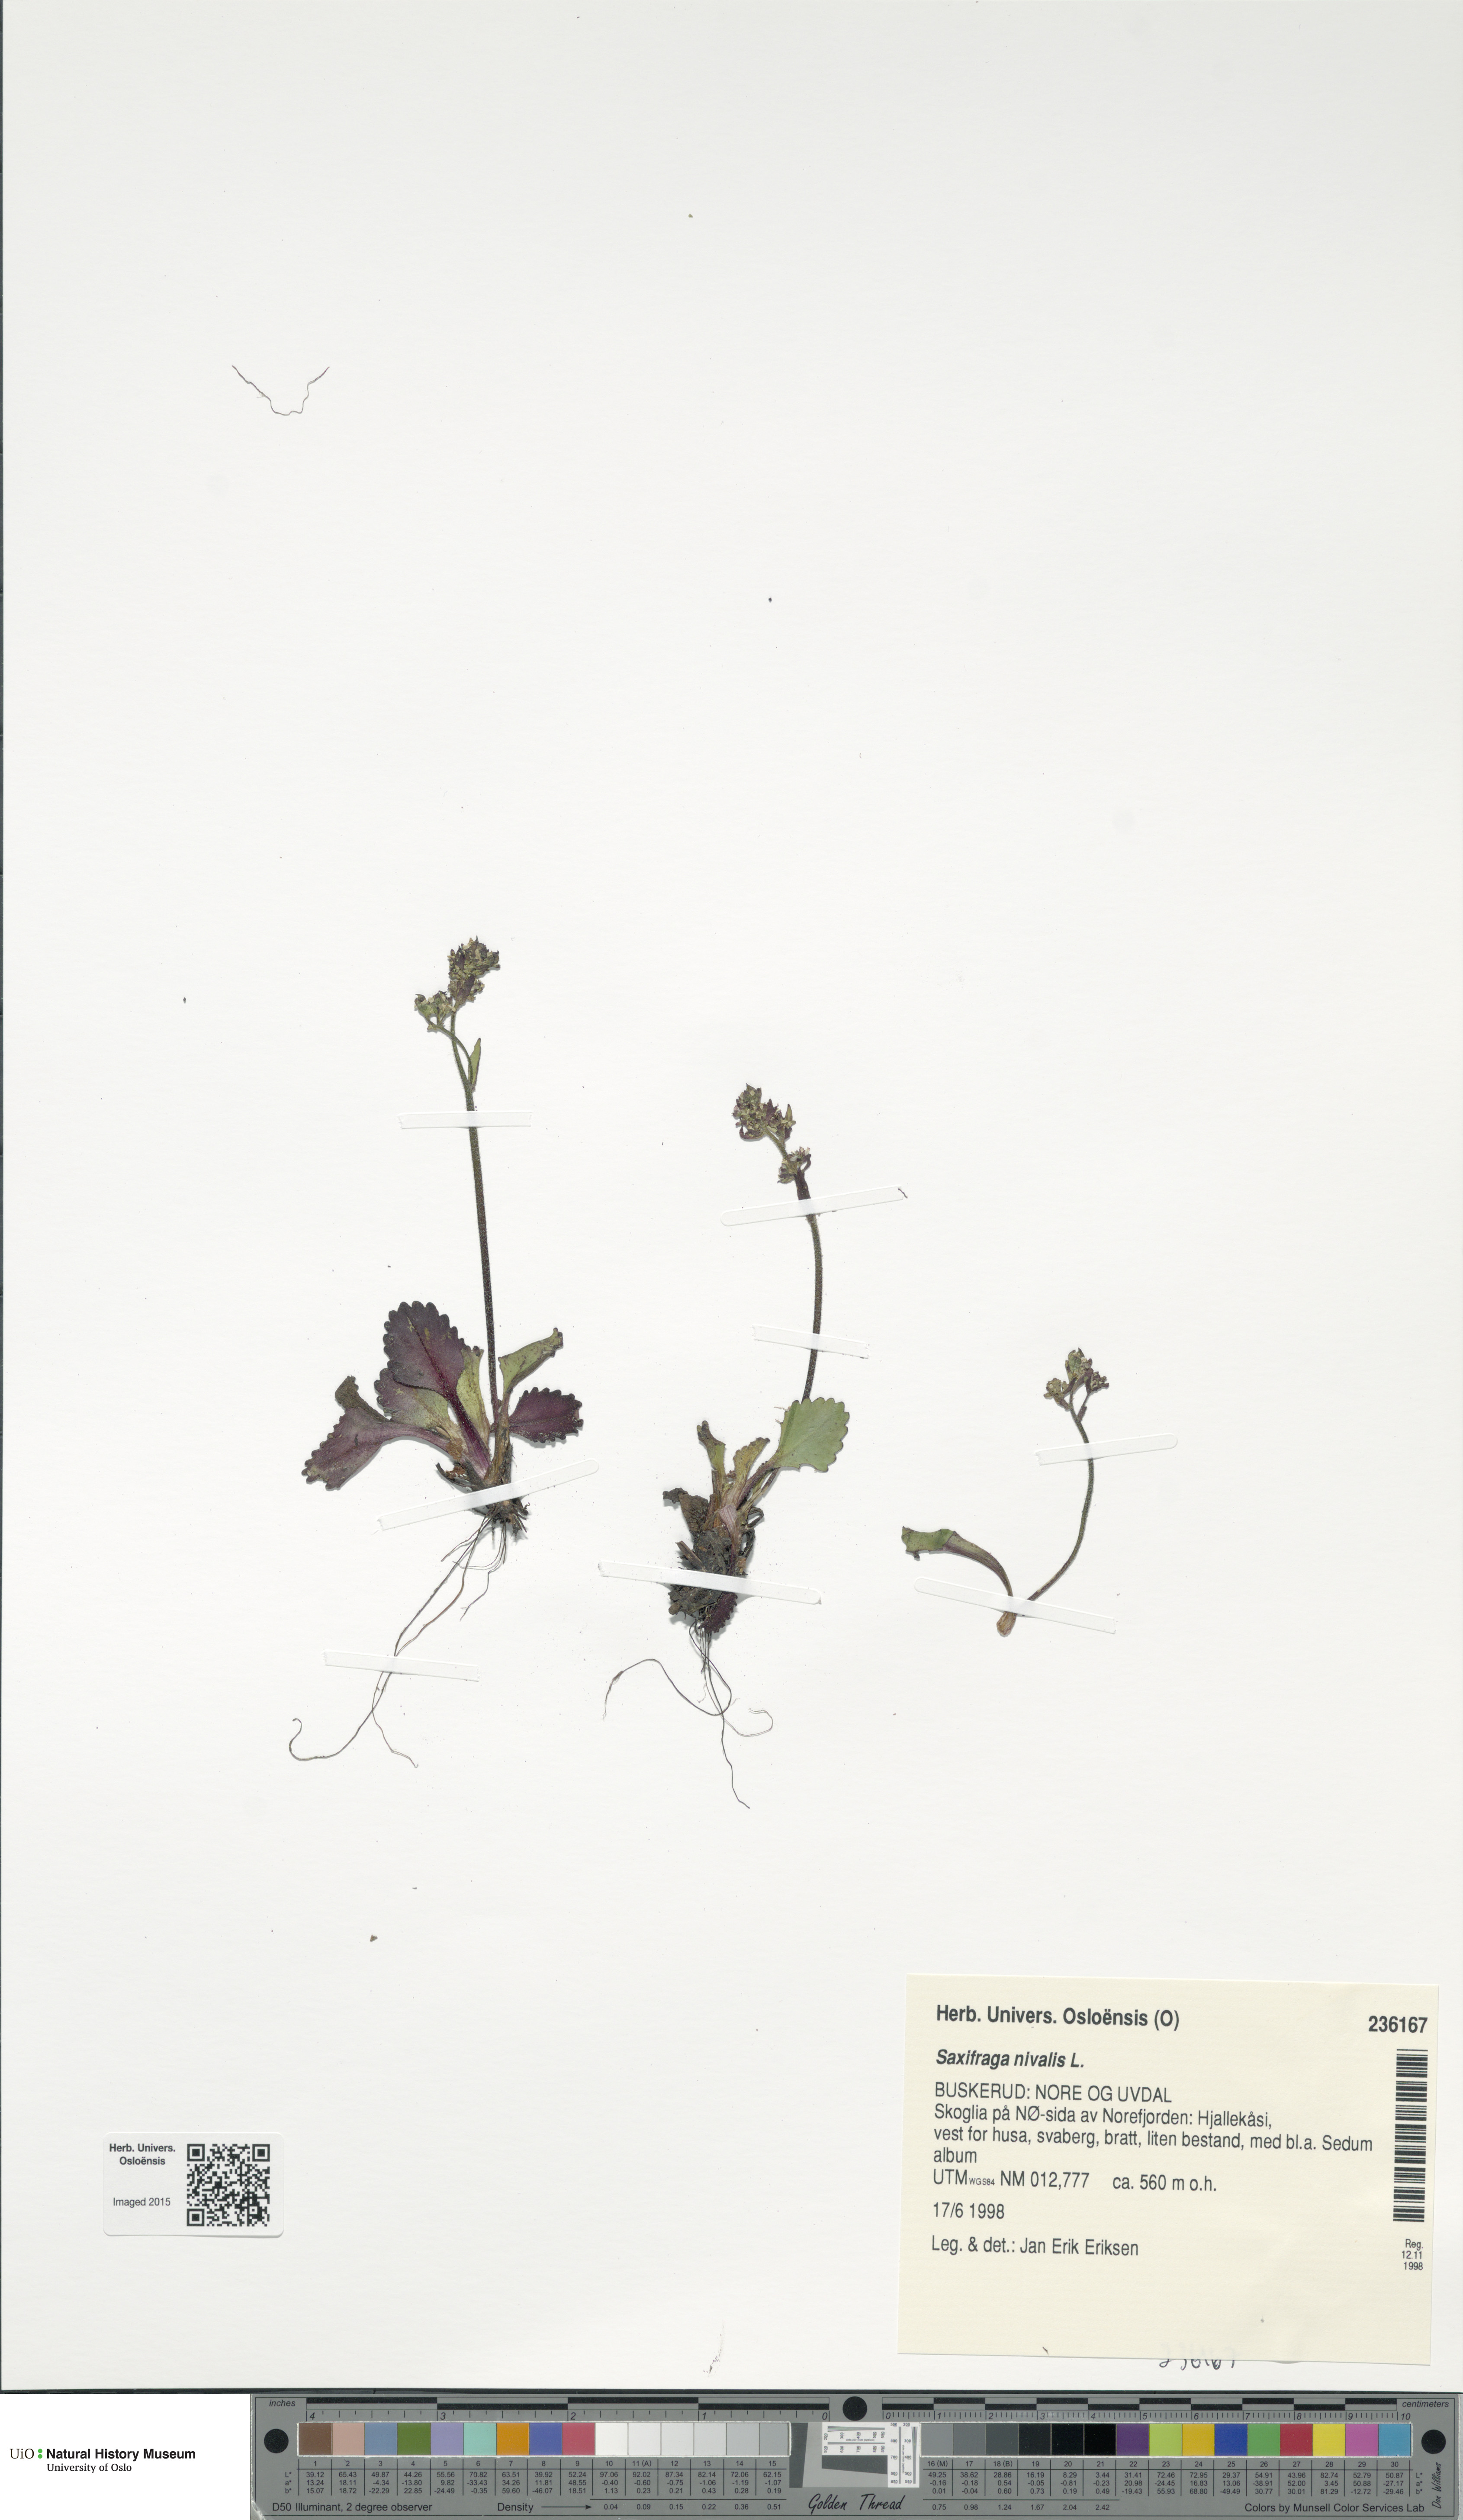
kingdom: Plantae
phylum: Tracheophyta
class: Magnoliopsida
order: Saxifragales
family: Saxifragaceae
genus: Micranthes
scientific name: Micranthes nivalis
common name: Alpine saxifrage
